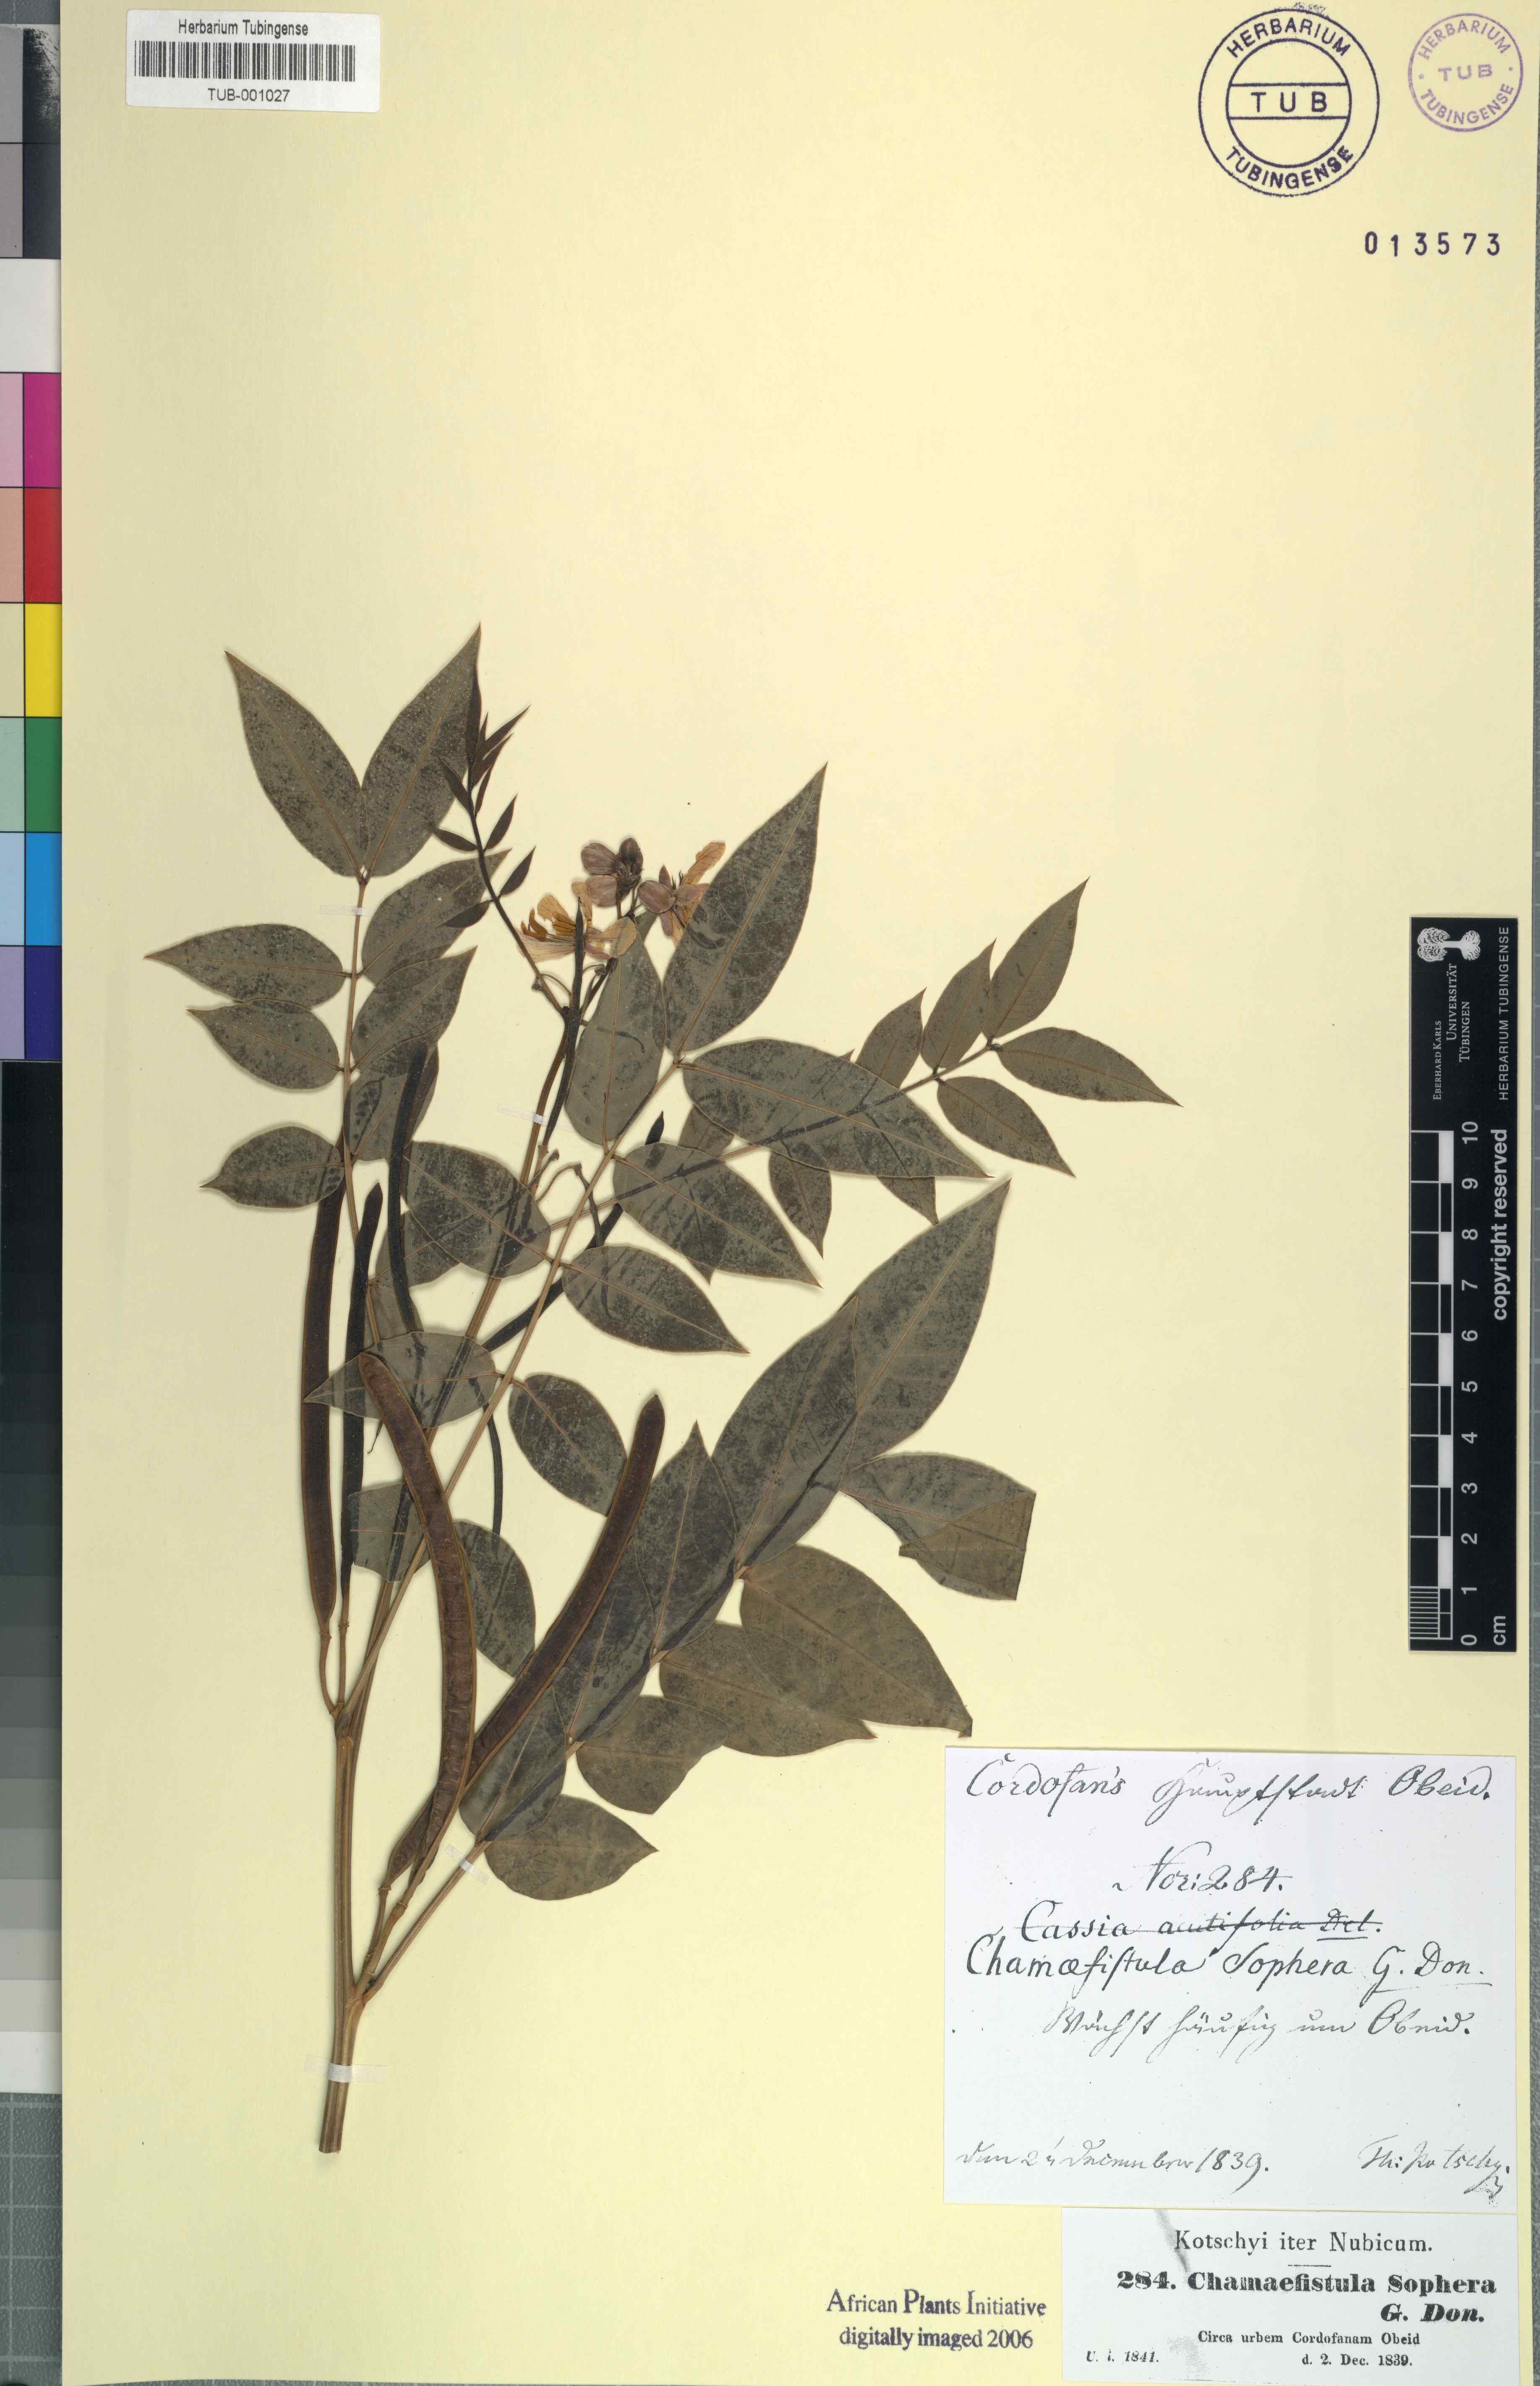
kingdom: Plantae
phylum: Tracheophyta
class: Magnoliopsida
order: Fabales
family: Fabaceae
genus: Senna
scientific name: Senna sophera
